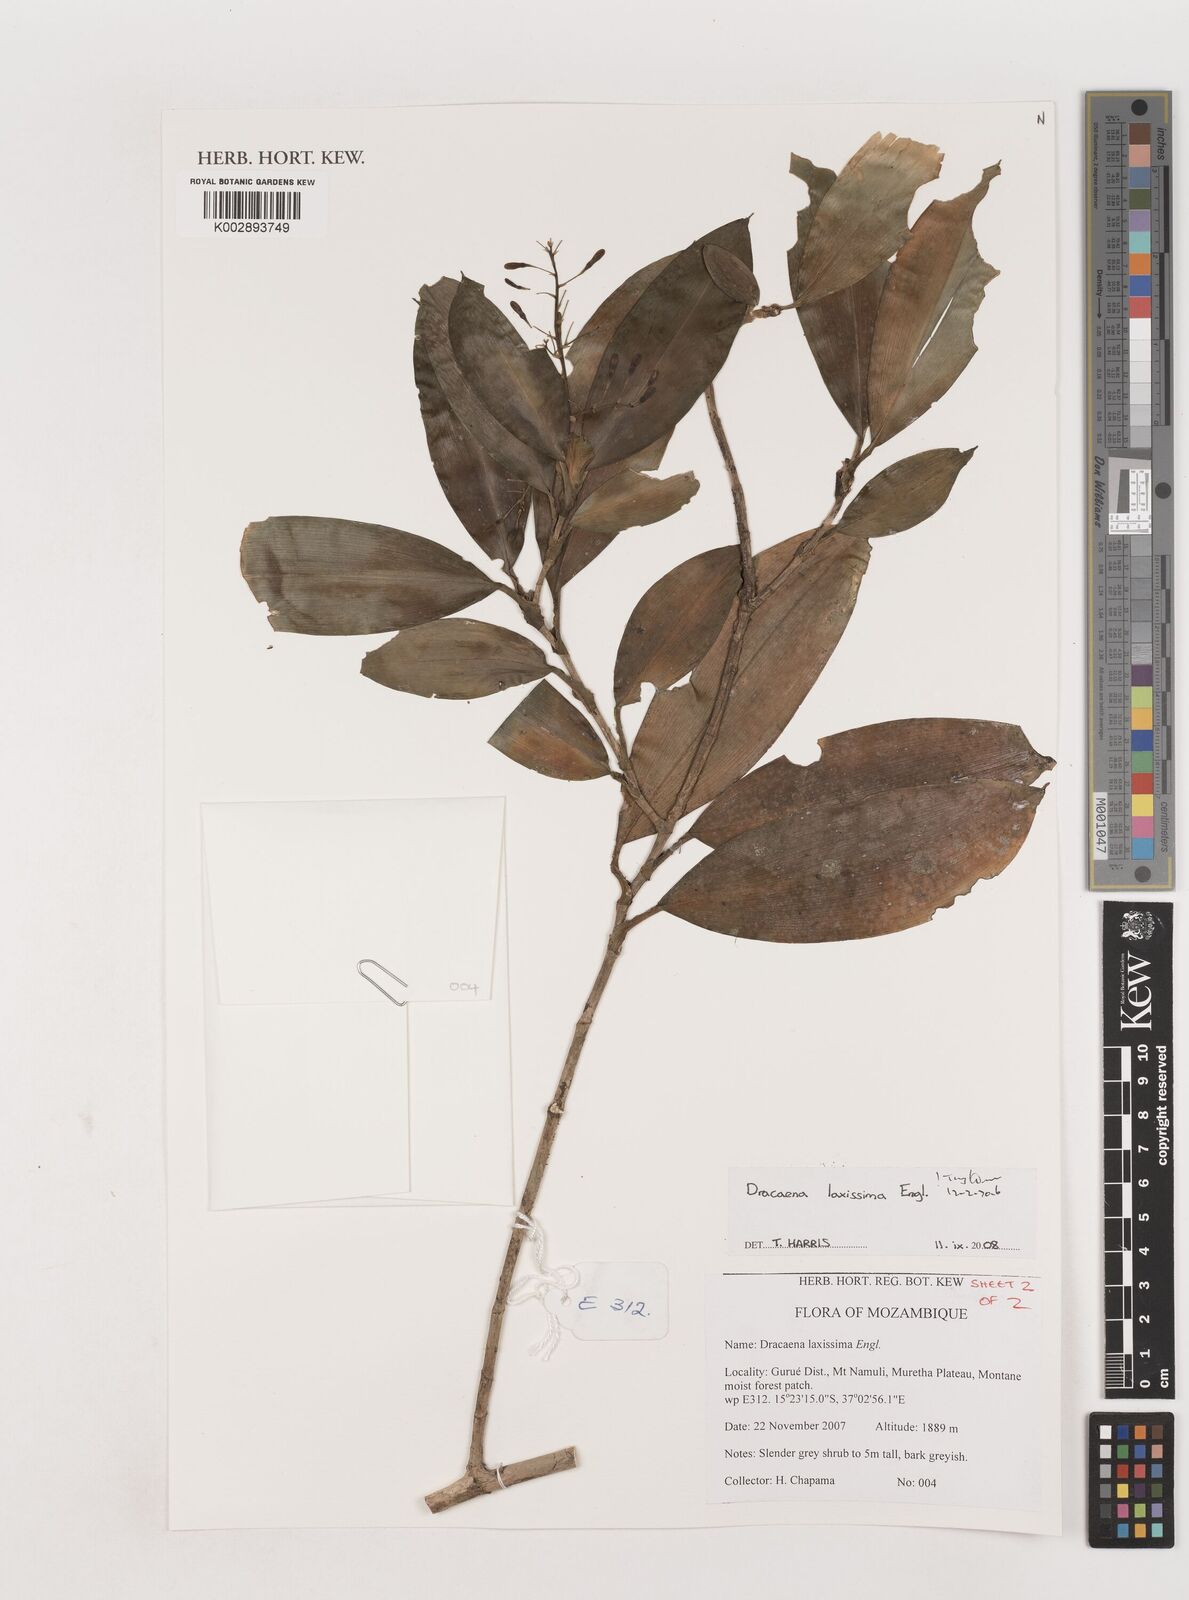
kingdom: Plantae
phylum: Tracheophyta
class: Liliopsida
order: Asparagales
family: Asparagaceae
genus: Dracaena
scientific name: Dracaena laxissima
